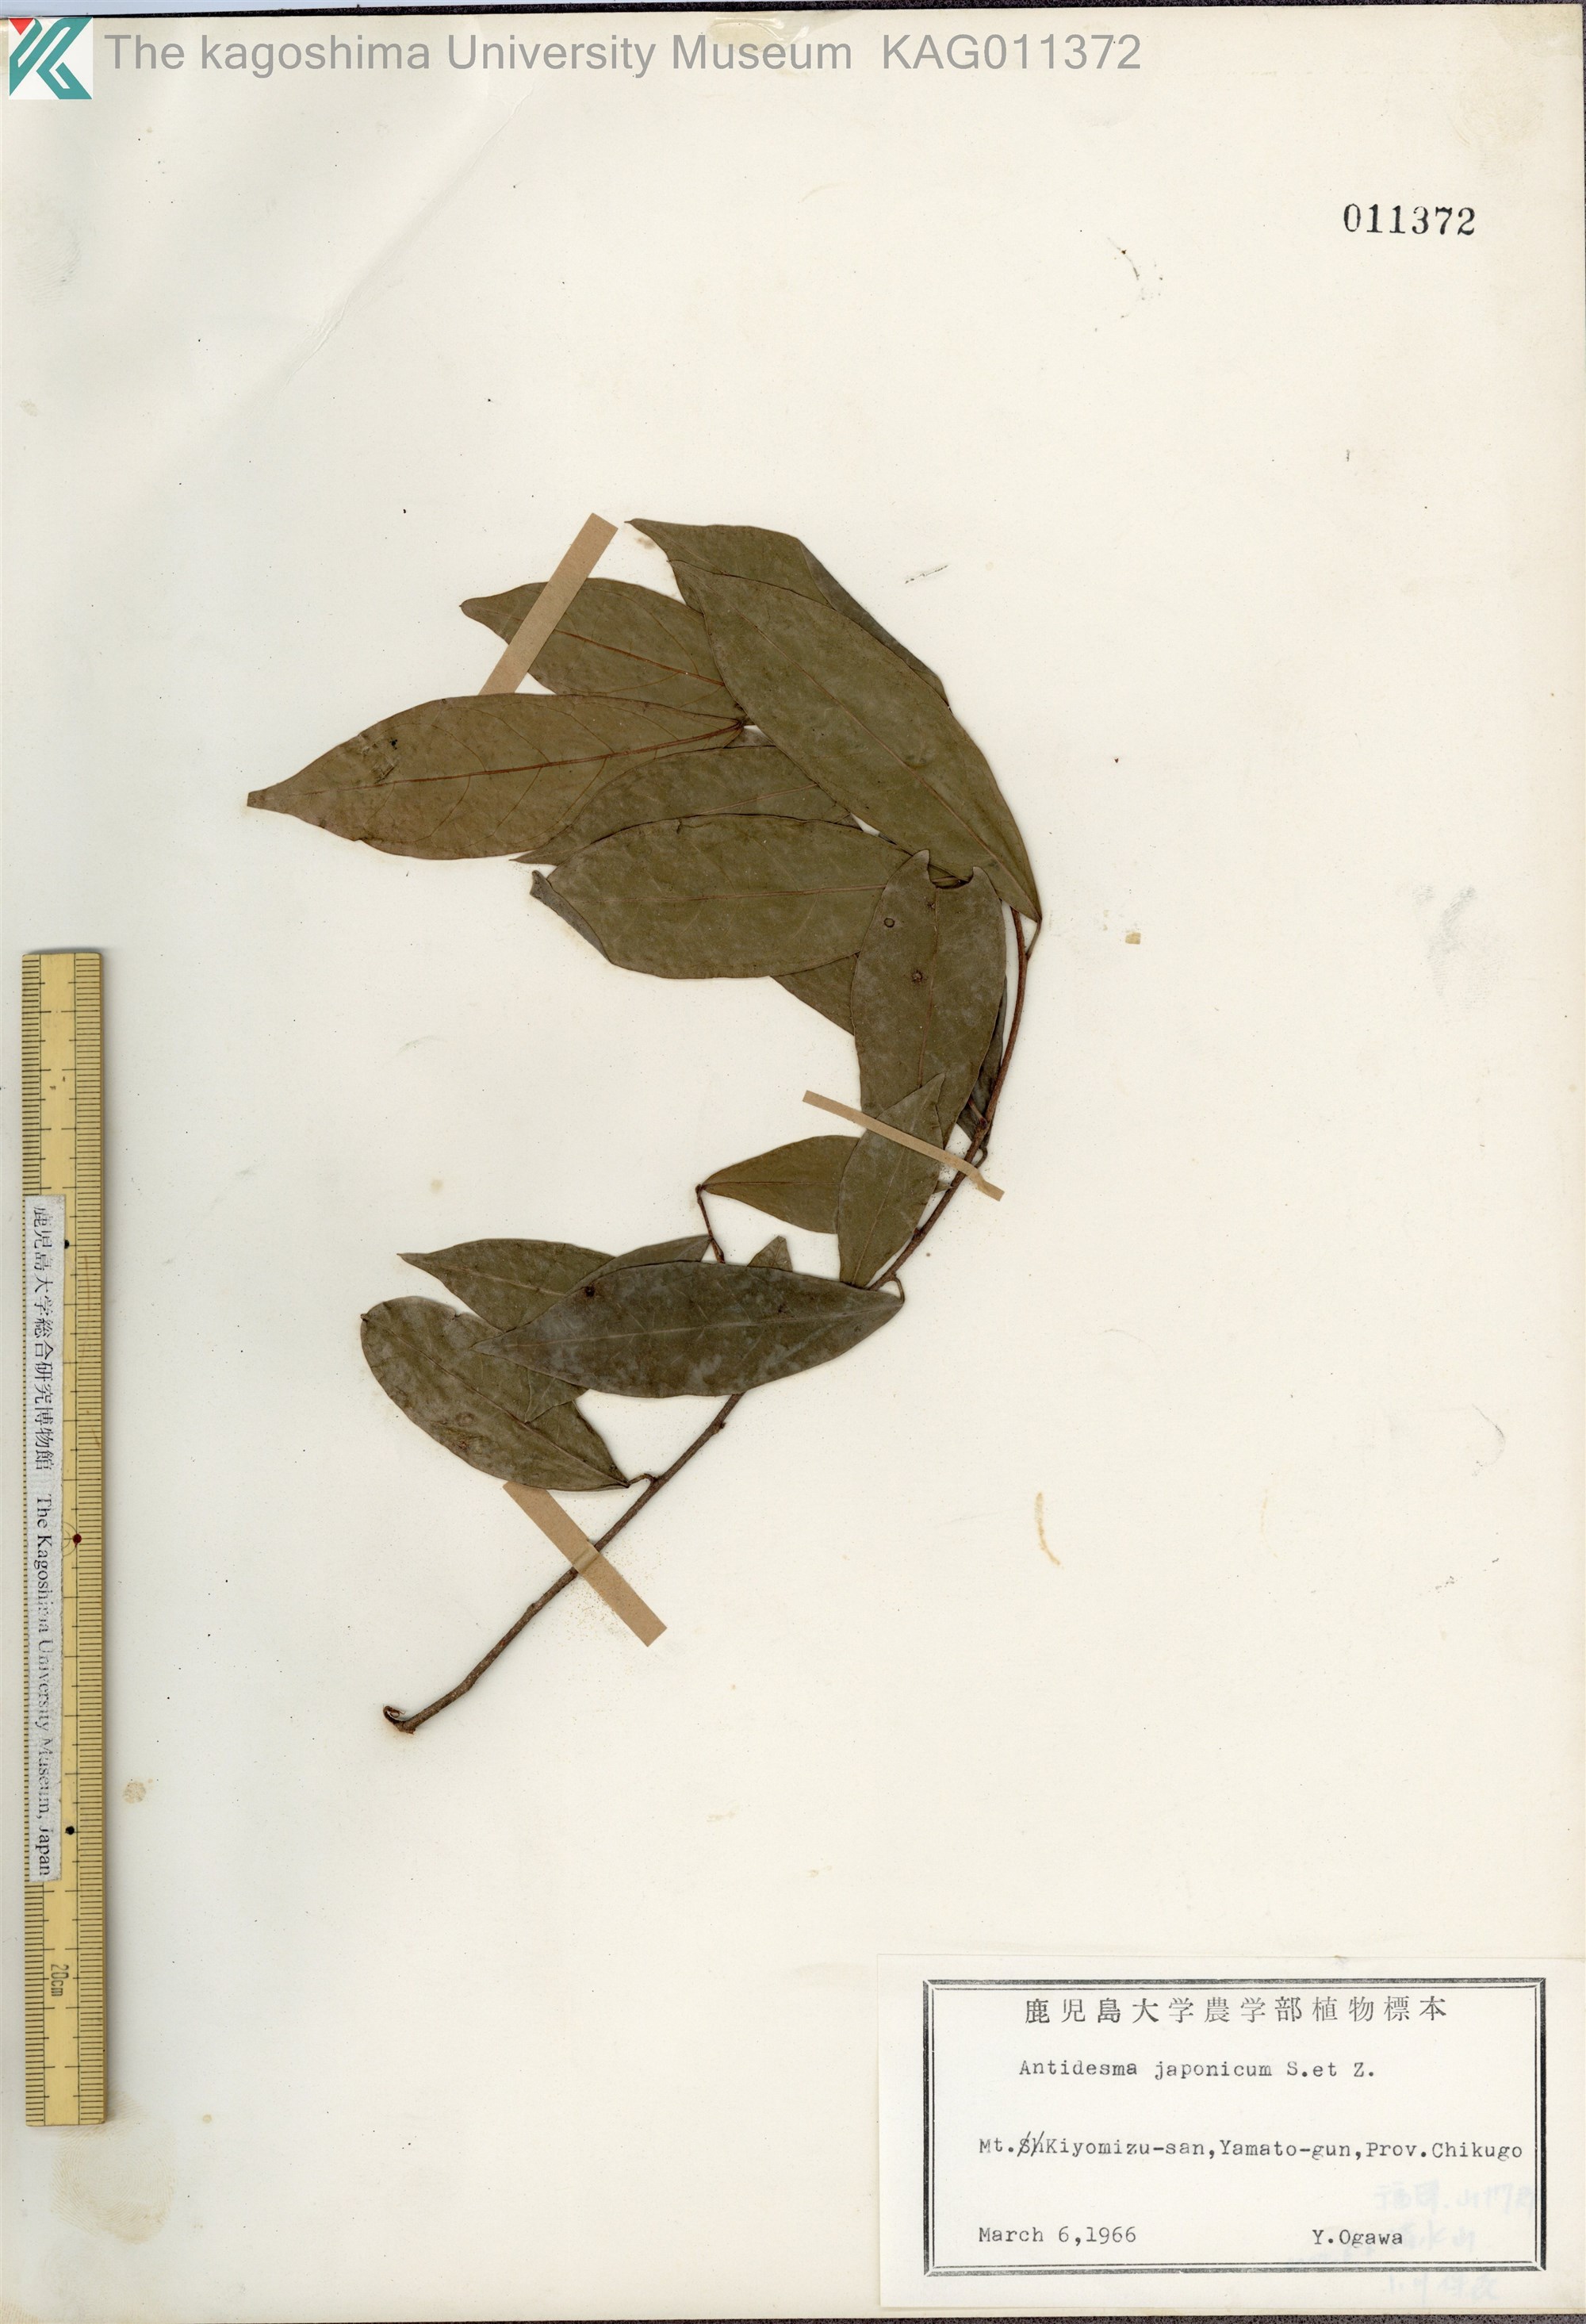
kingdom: Plantae
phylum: Tracheophyta
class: Magnoliopsida
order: Malpighiales
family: Phyllanthaceae
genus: Antidesma
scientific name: Antidesma japonicum
